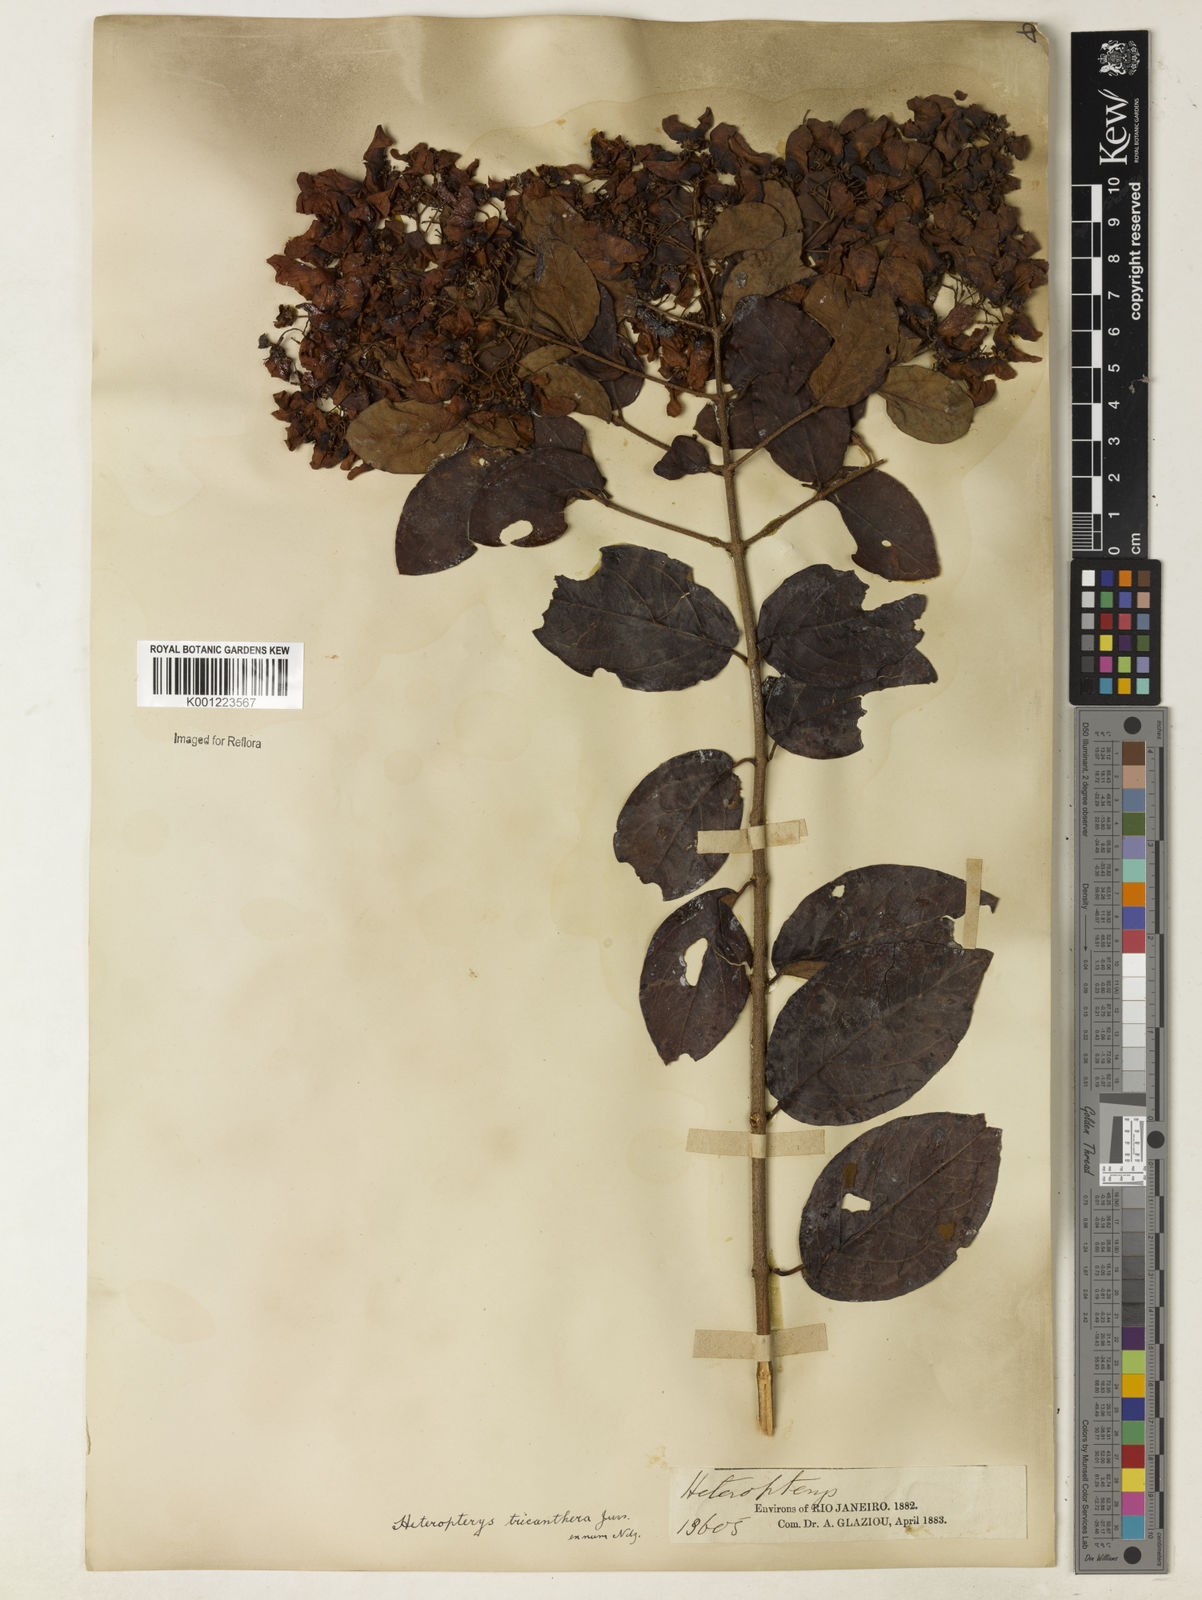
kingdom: Plantae
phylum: Tracheophyta
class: Magnoliopsida
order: Malpighiales
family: Malpighiaceae
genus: Heteropterys
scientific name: Heteropterys trichanthera
